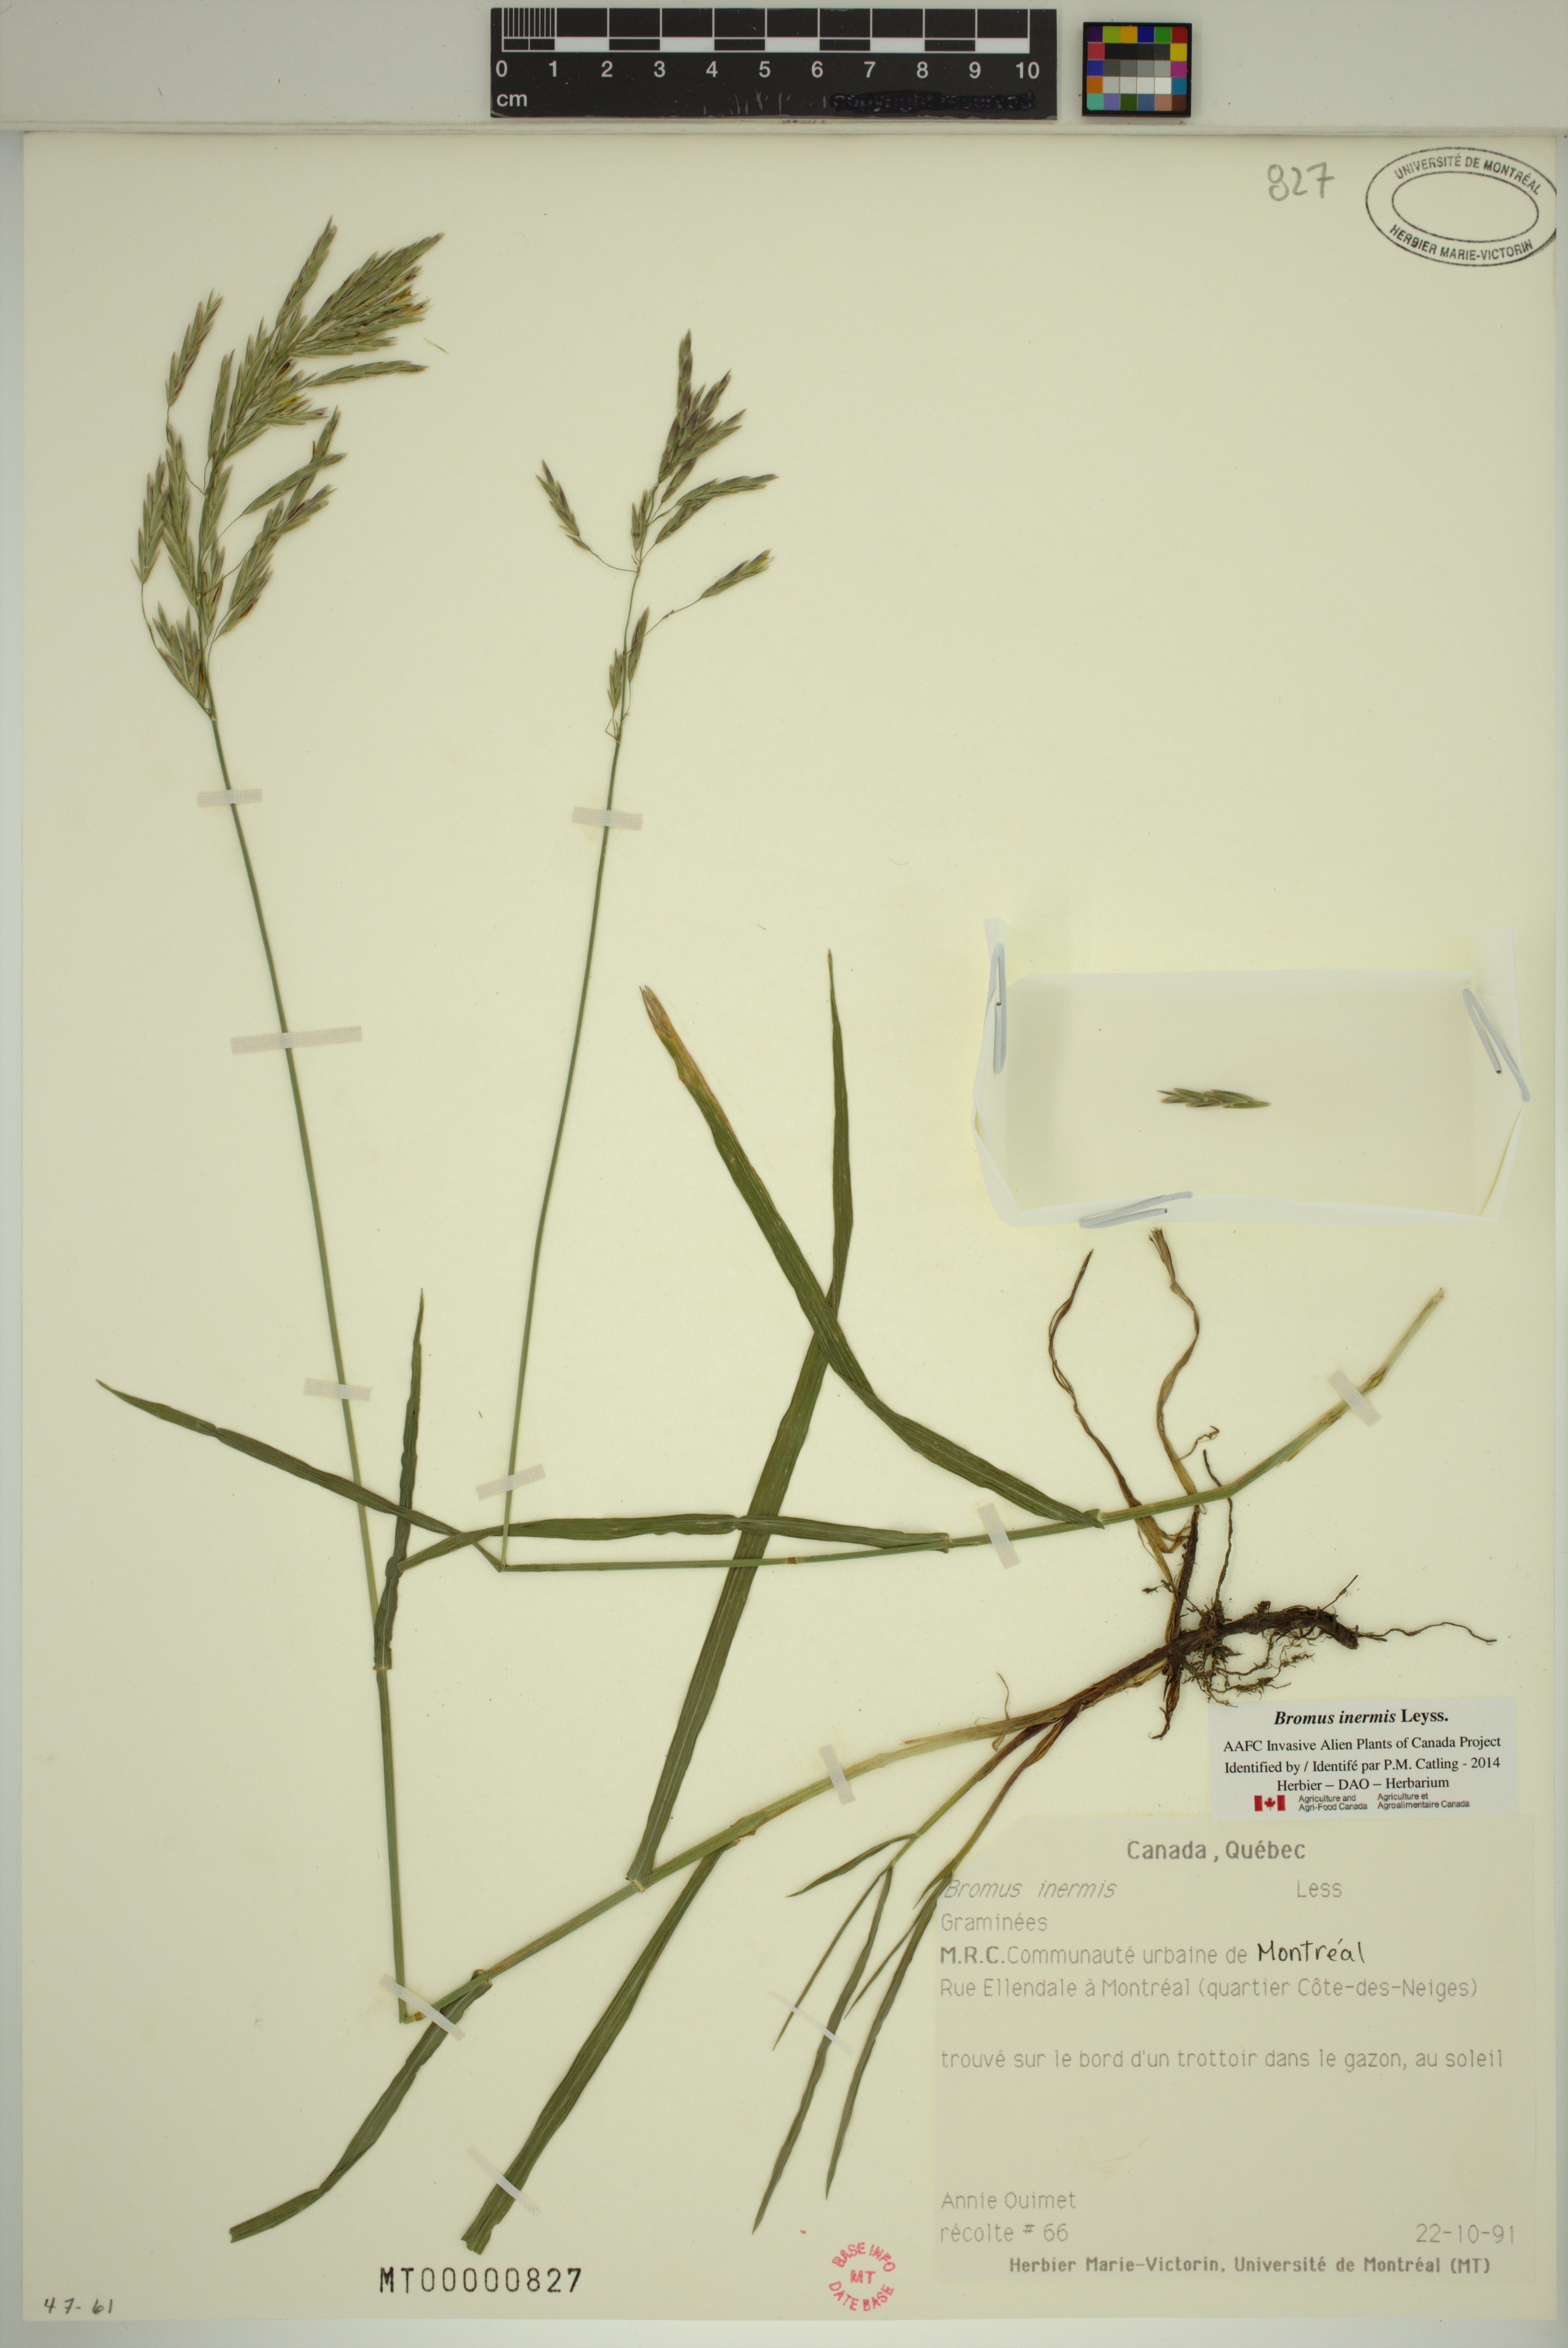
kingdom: Plantae
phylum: Tracheophyta
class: Liliopsida
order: Poales
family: Poaceae
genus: Bromus
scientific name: Bromus inermis
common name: Smooth brome
